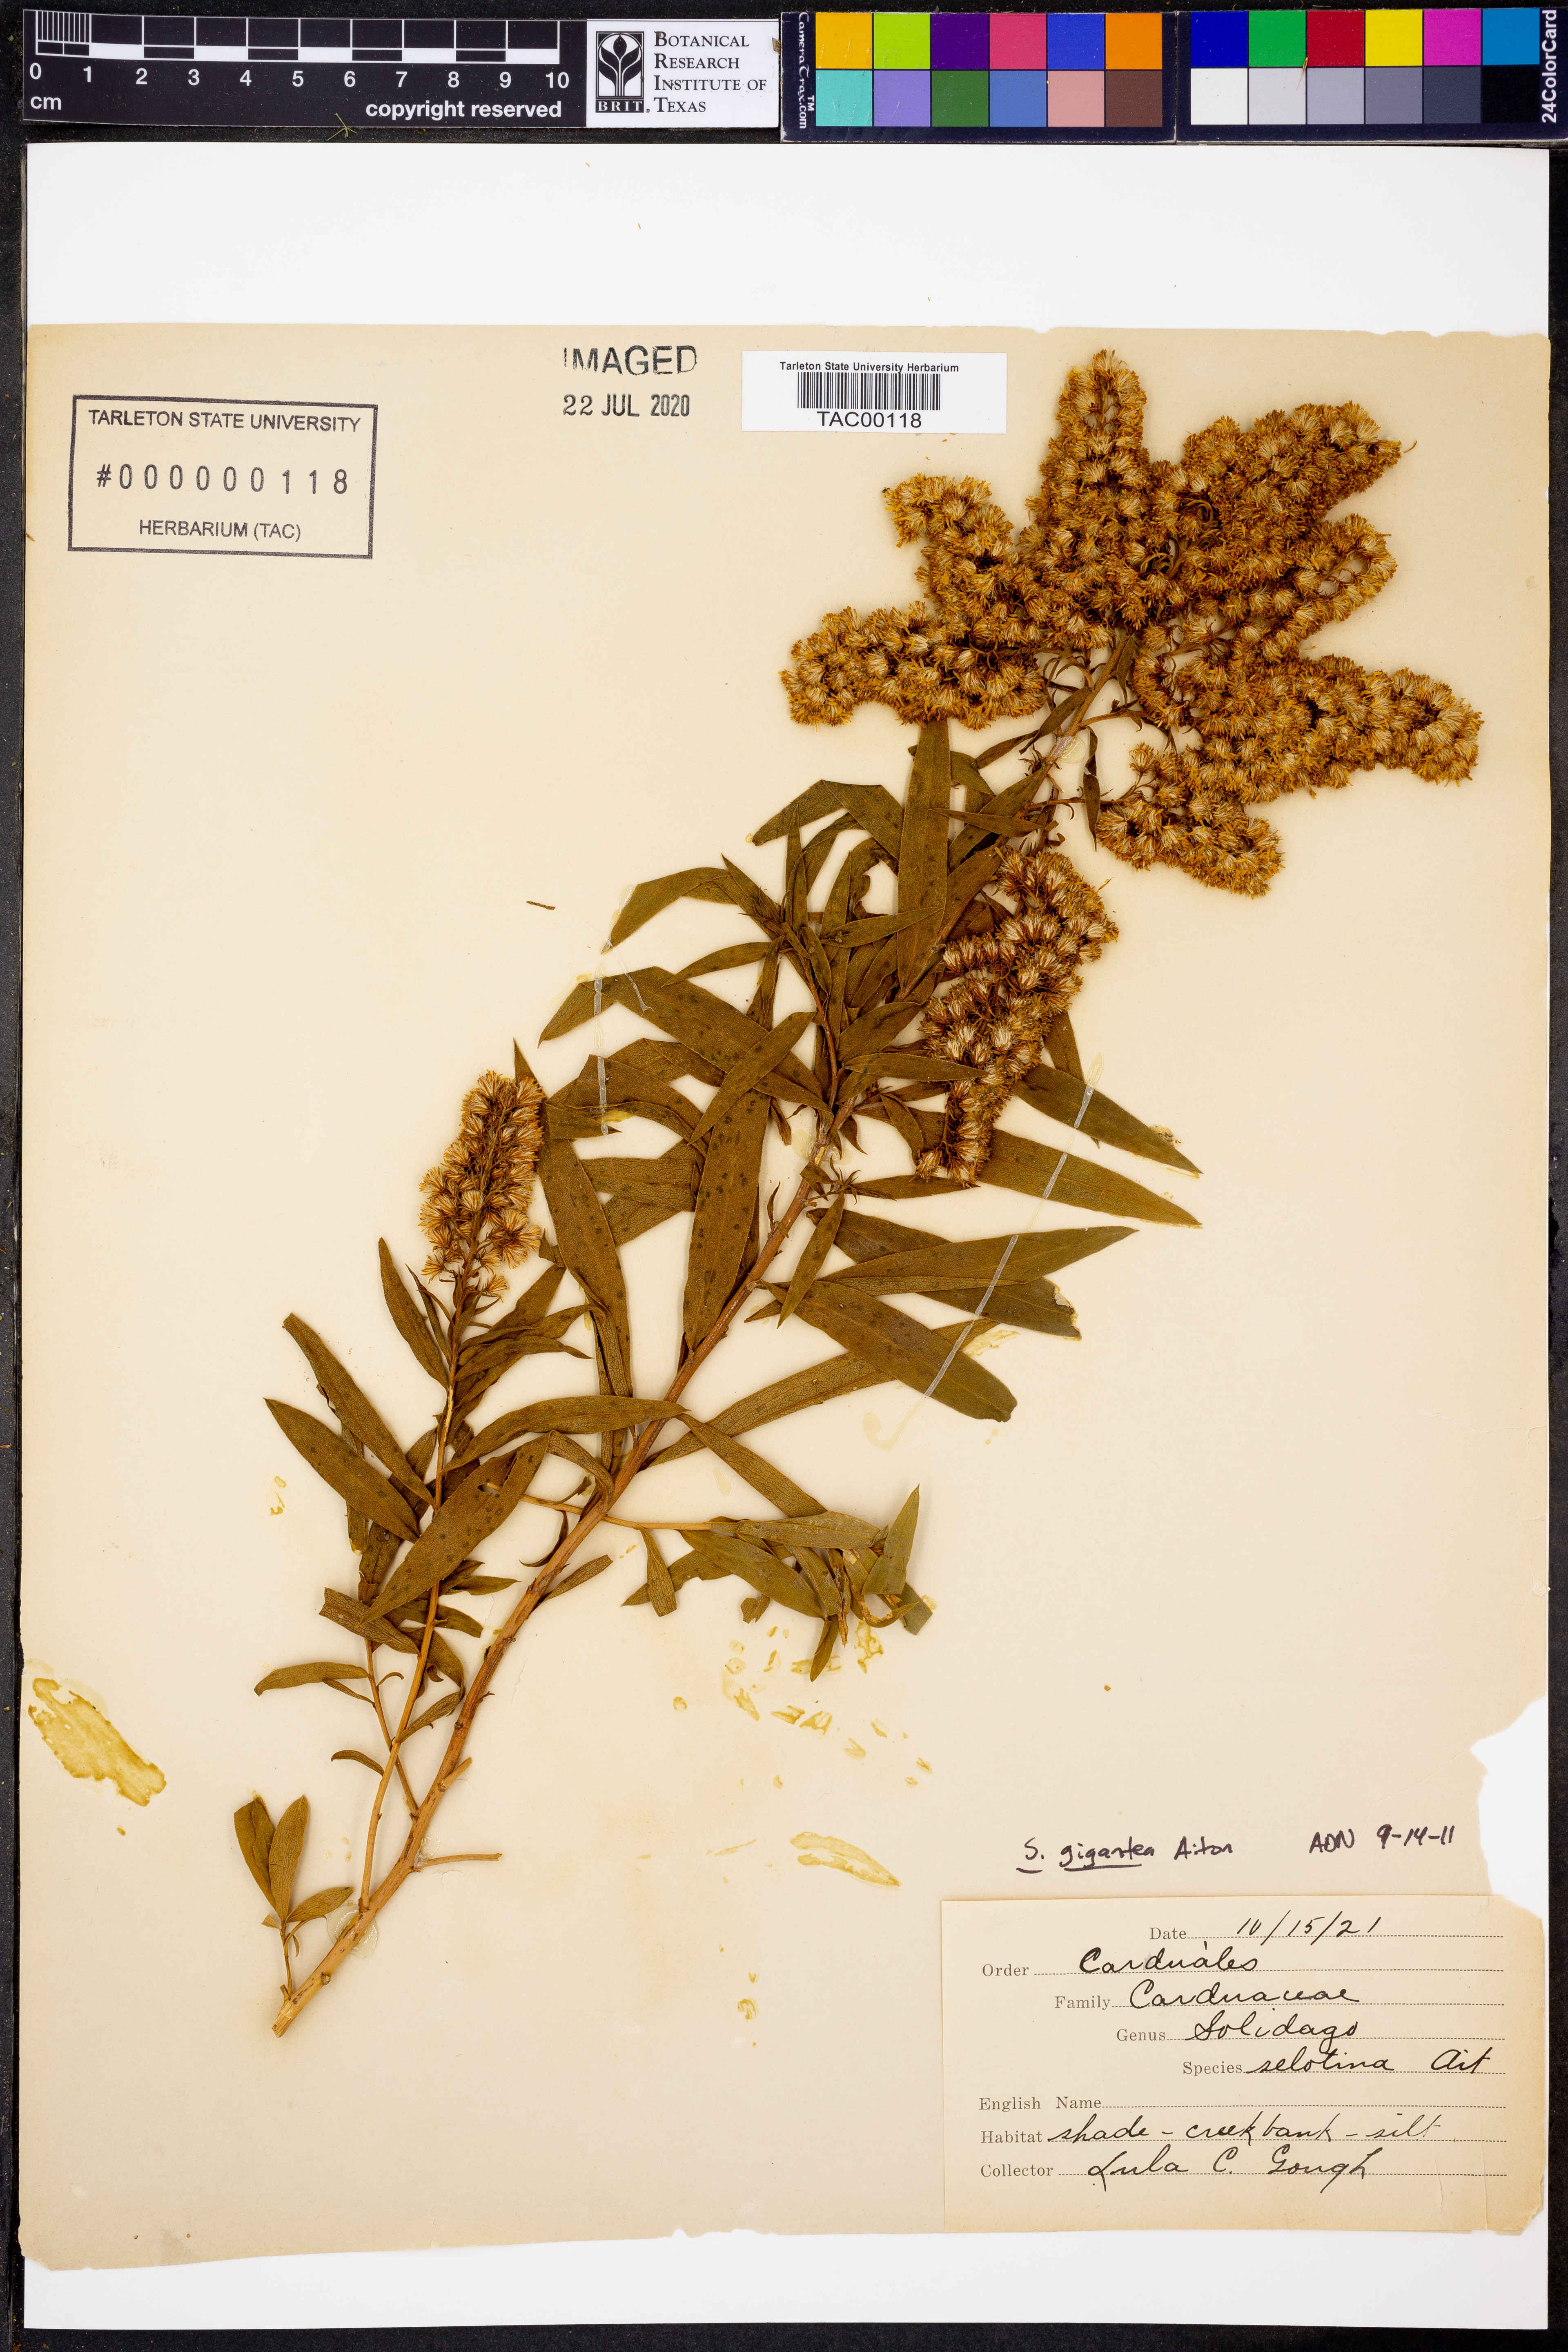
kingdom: Plantae
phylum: Tracheophyta
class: Magnoliopsida
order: Asterales
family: Asteraceae
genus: Solidago
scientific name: Solidago gigantea
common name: Giant goldenrod
